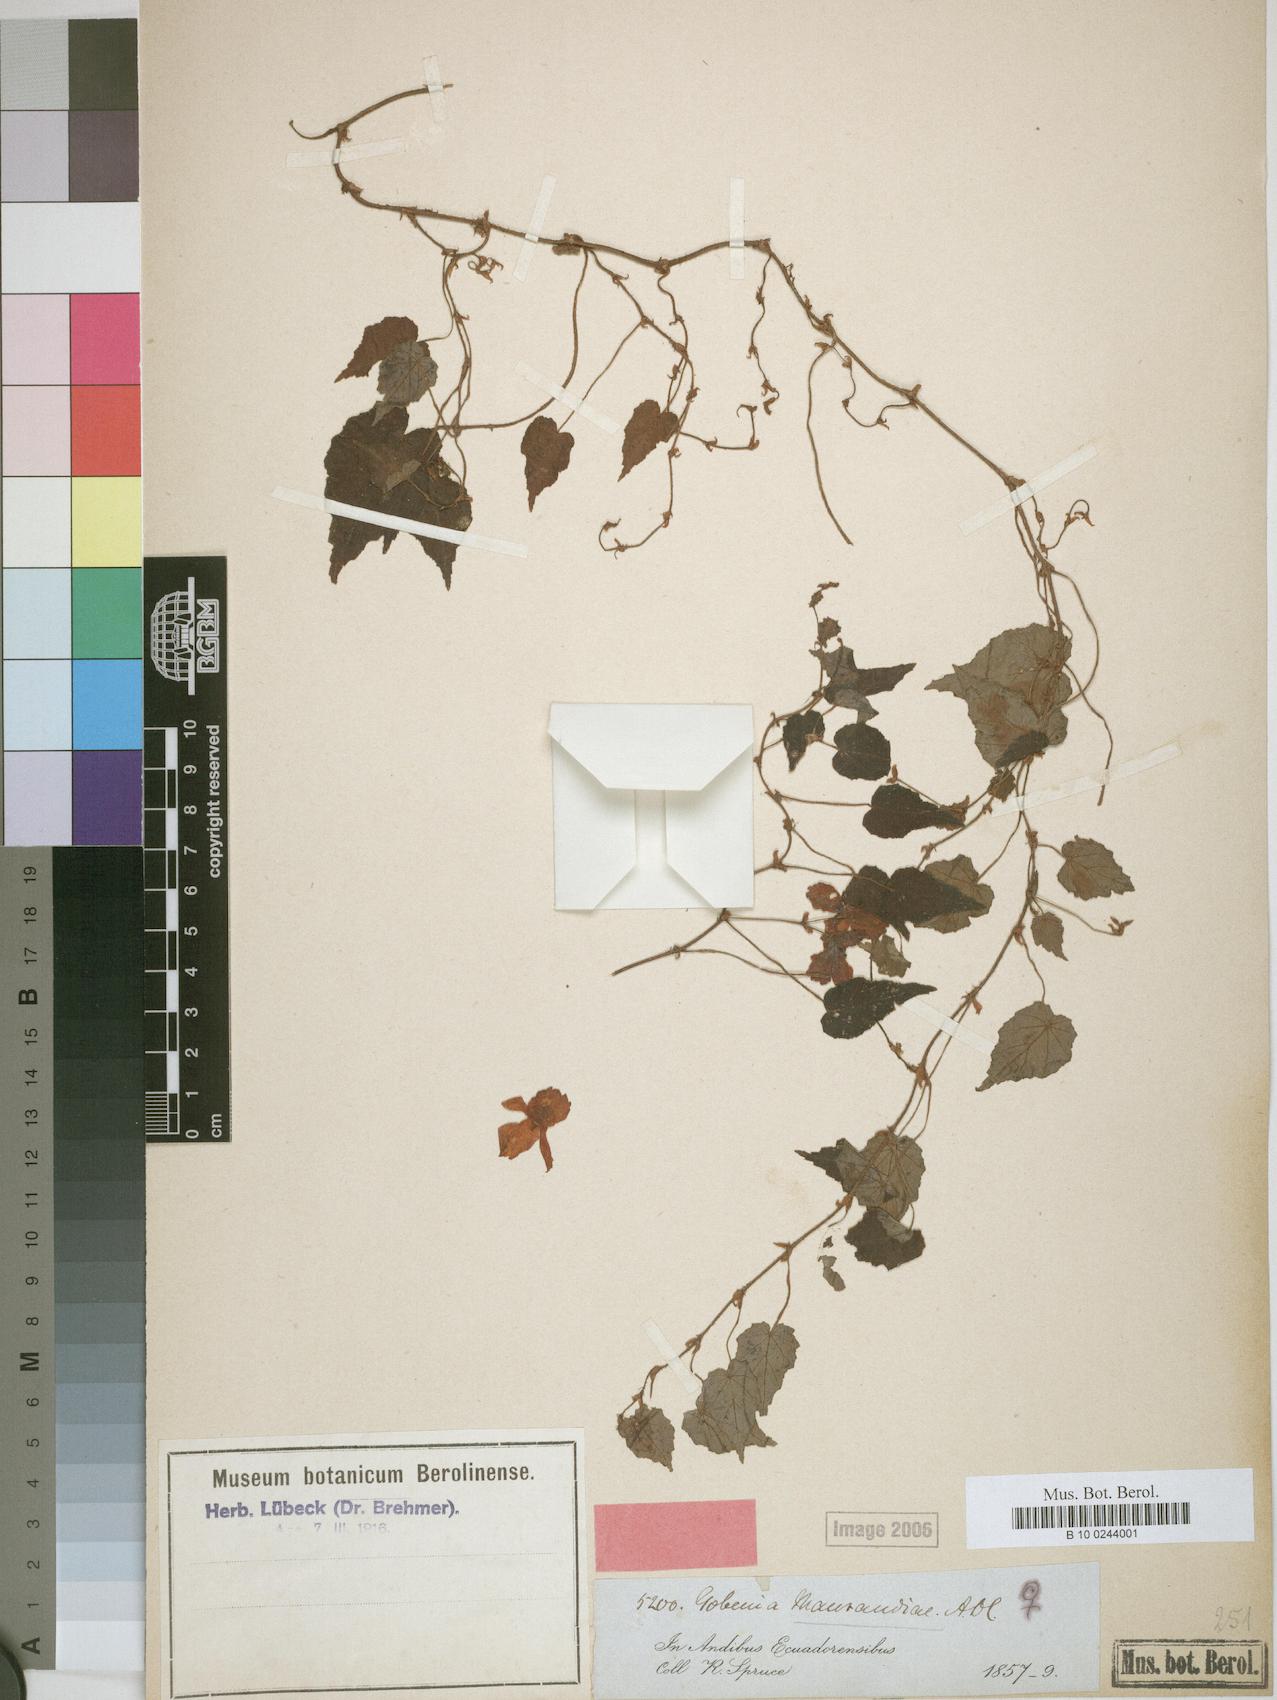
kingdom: Plantae
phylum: Tracheophyta
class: Magnoliopsida
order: Cucurbitales
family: Begoniaceae
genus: Begonia
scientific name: Begonia maurandiae
